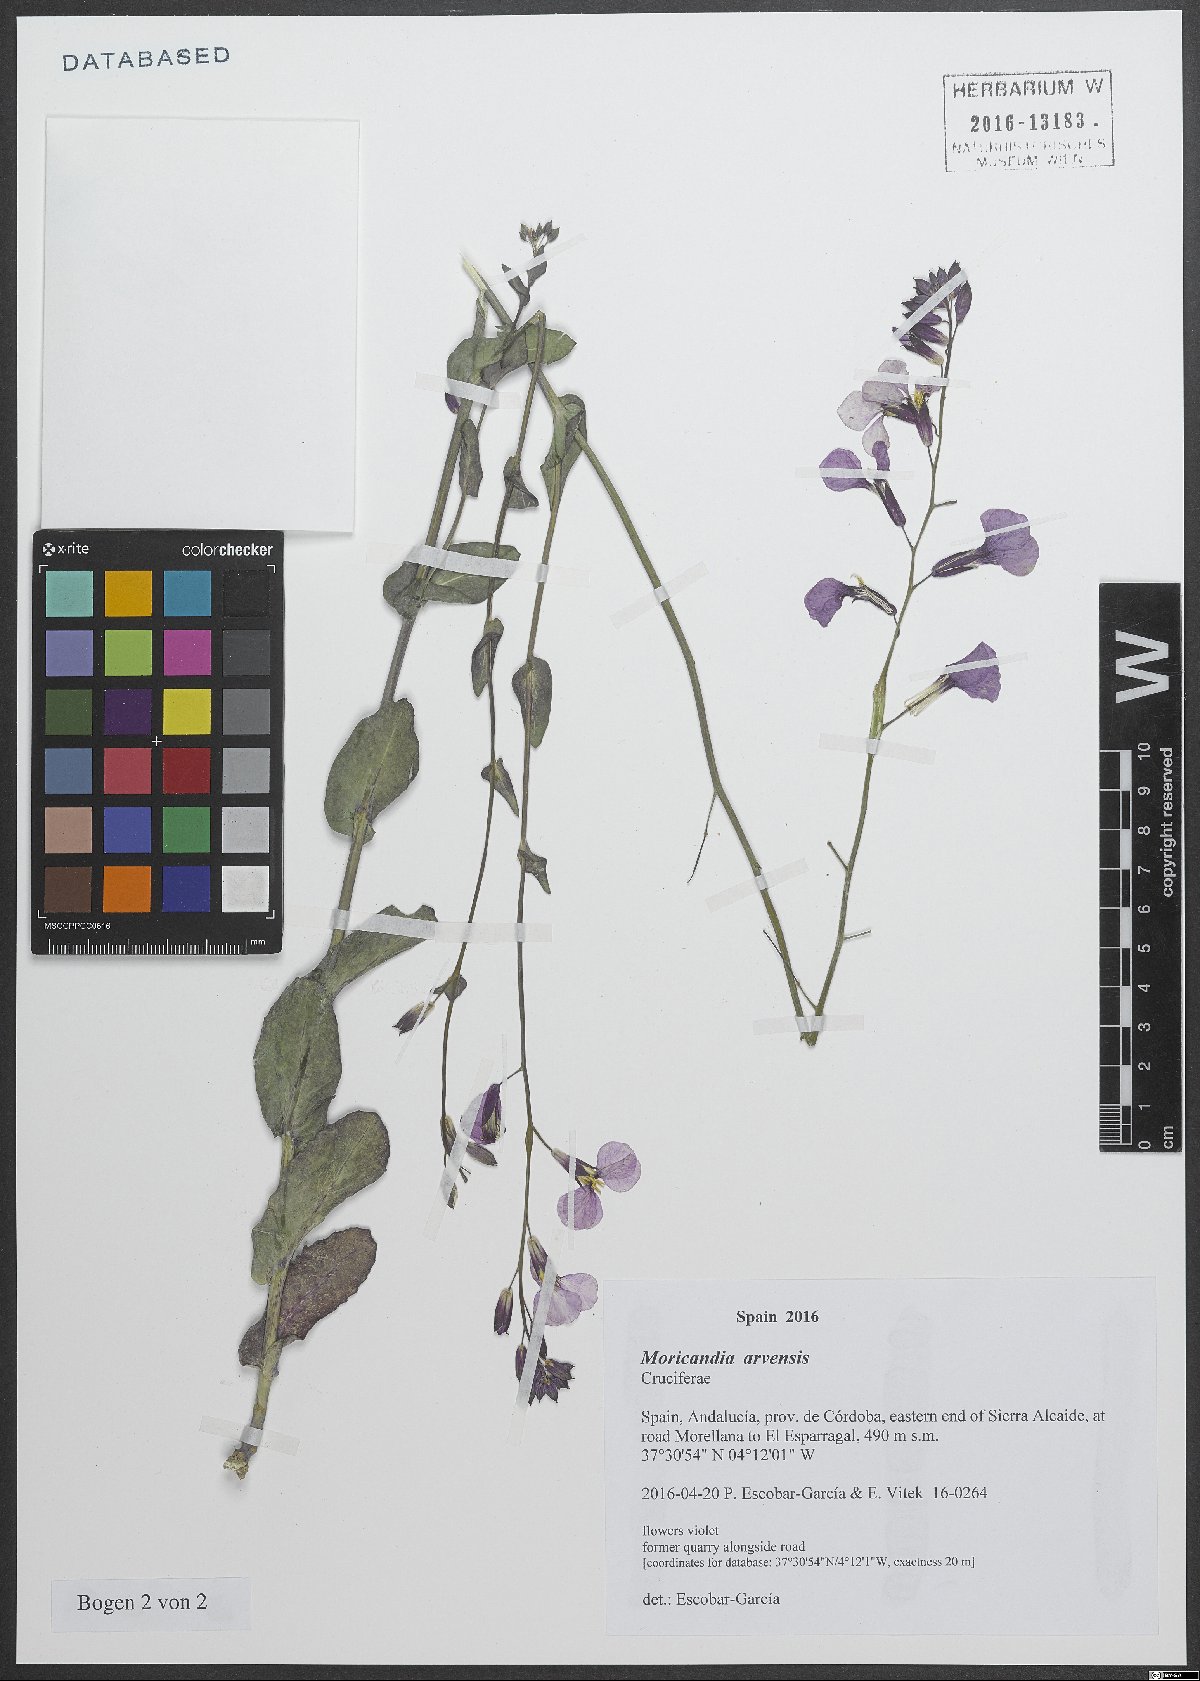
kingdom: Plantae
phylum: Tracheophyta
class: Magnoliopsida
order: Brassicales
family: Brassicaceae
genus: Moricandia
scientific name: Moricandia arvensis
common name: Purple mistress
